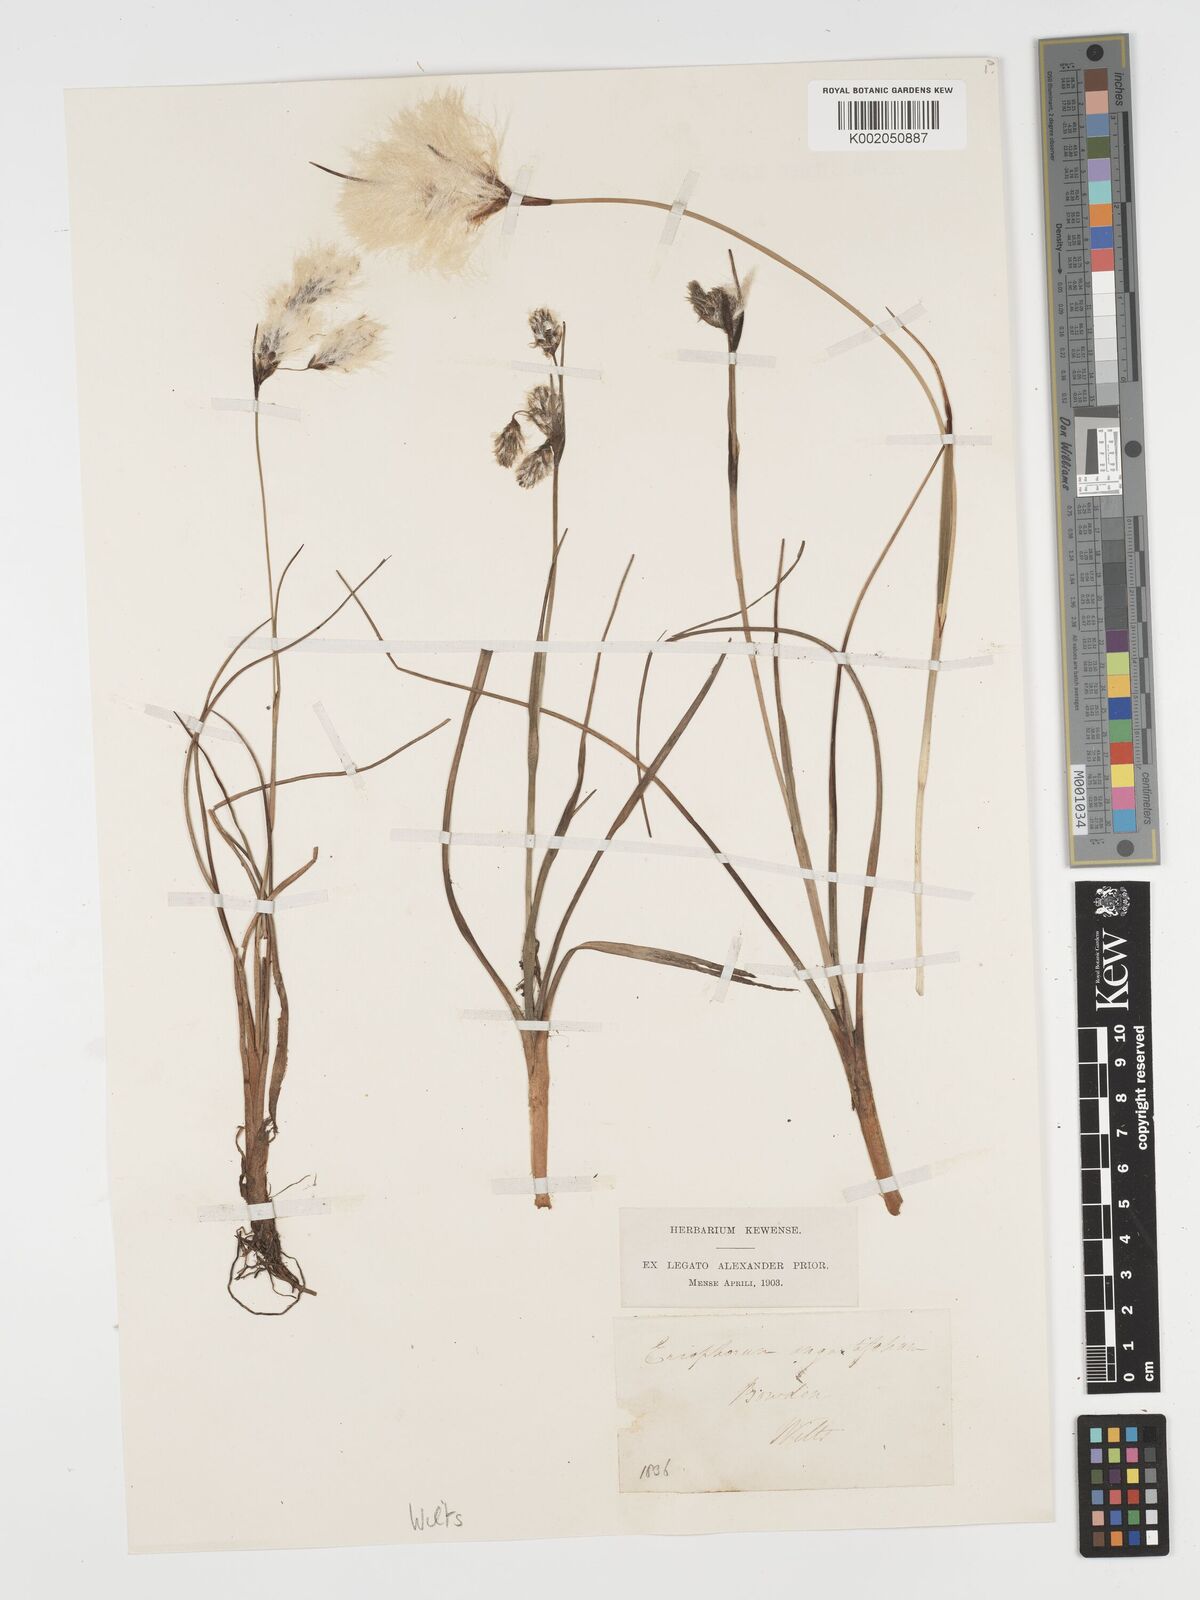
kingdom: Plantae
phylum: Tracheophyta
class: Liliopsida
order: Poales
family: Cyperaceae
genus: Eriophorum
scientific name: Eriophorum angustifolium
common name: Common cottongrass
